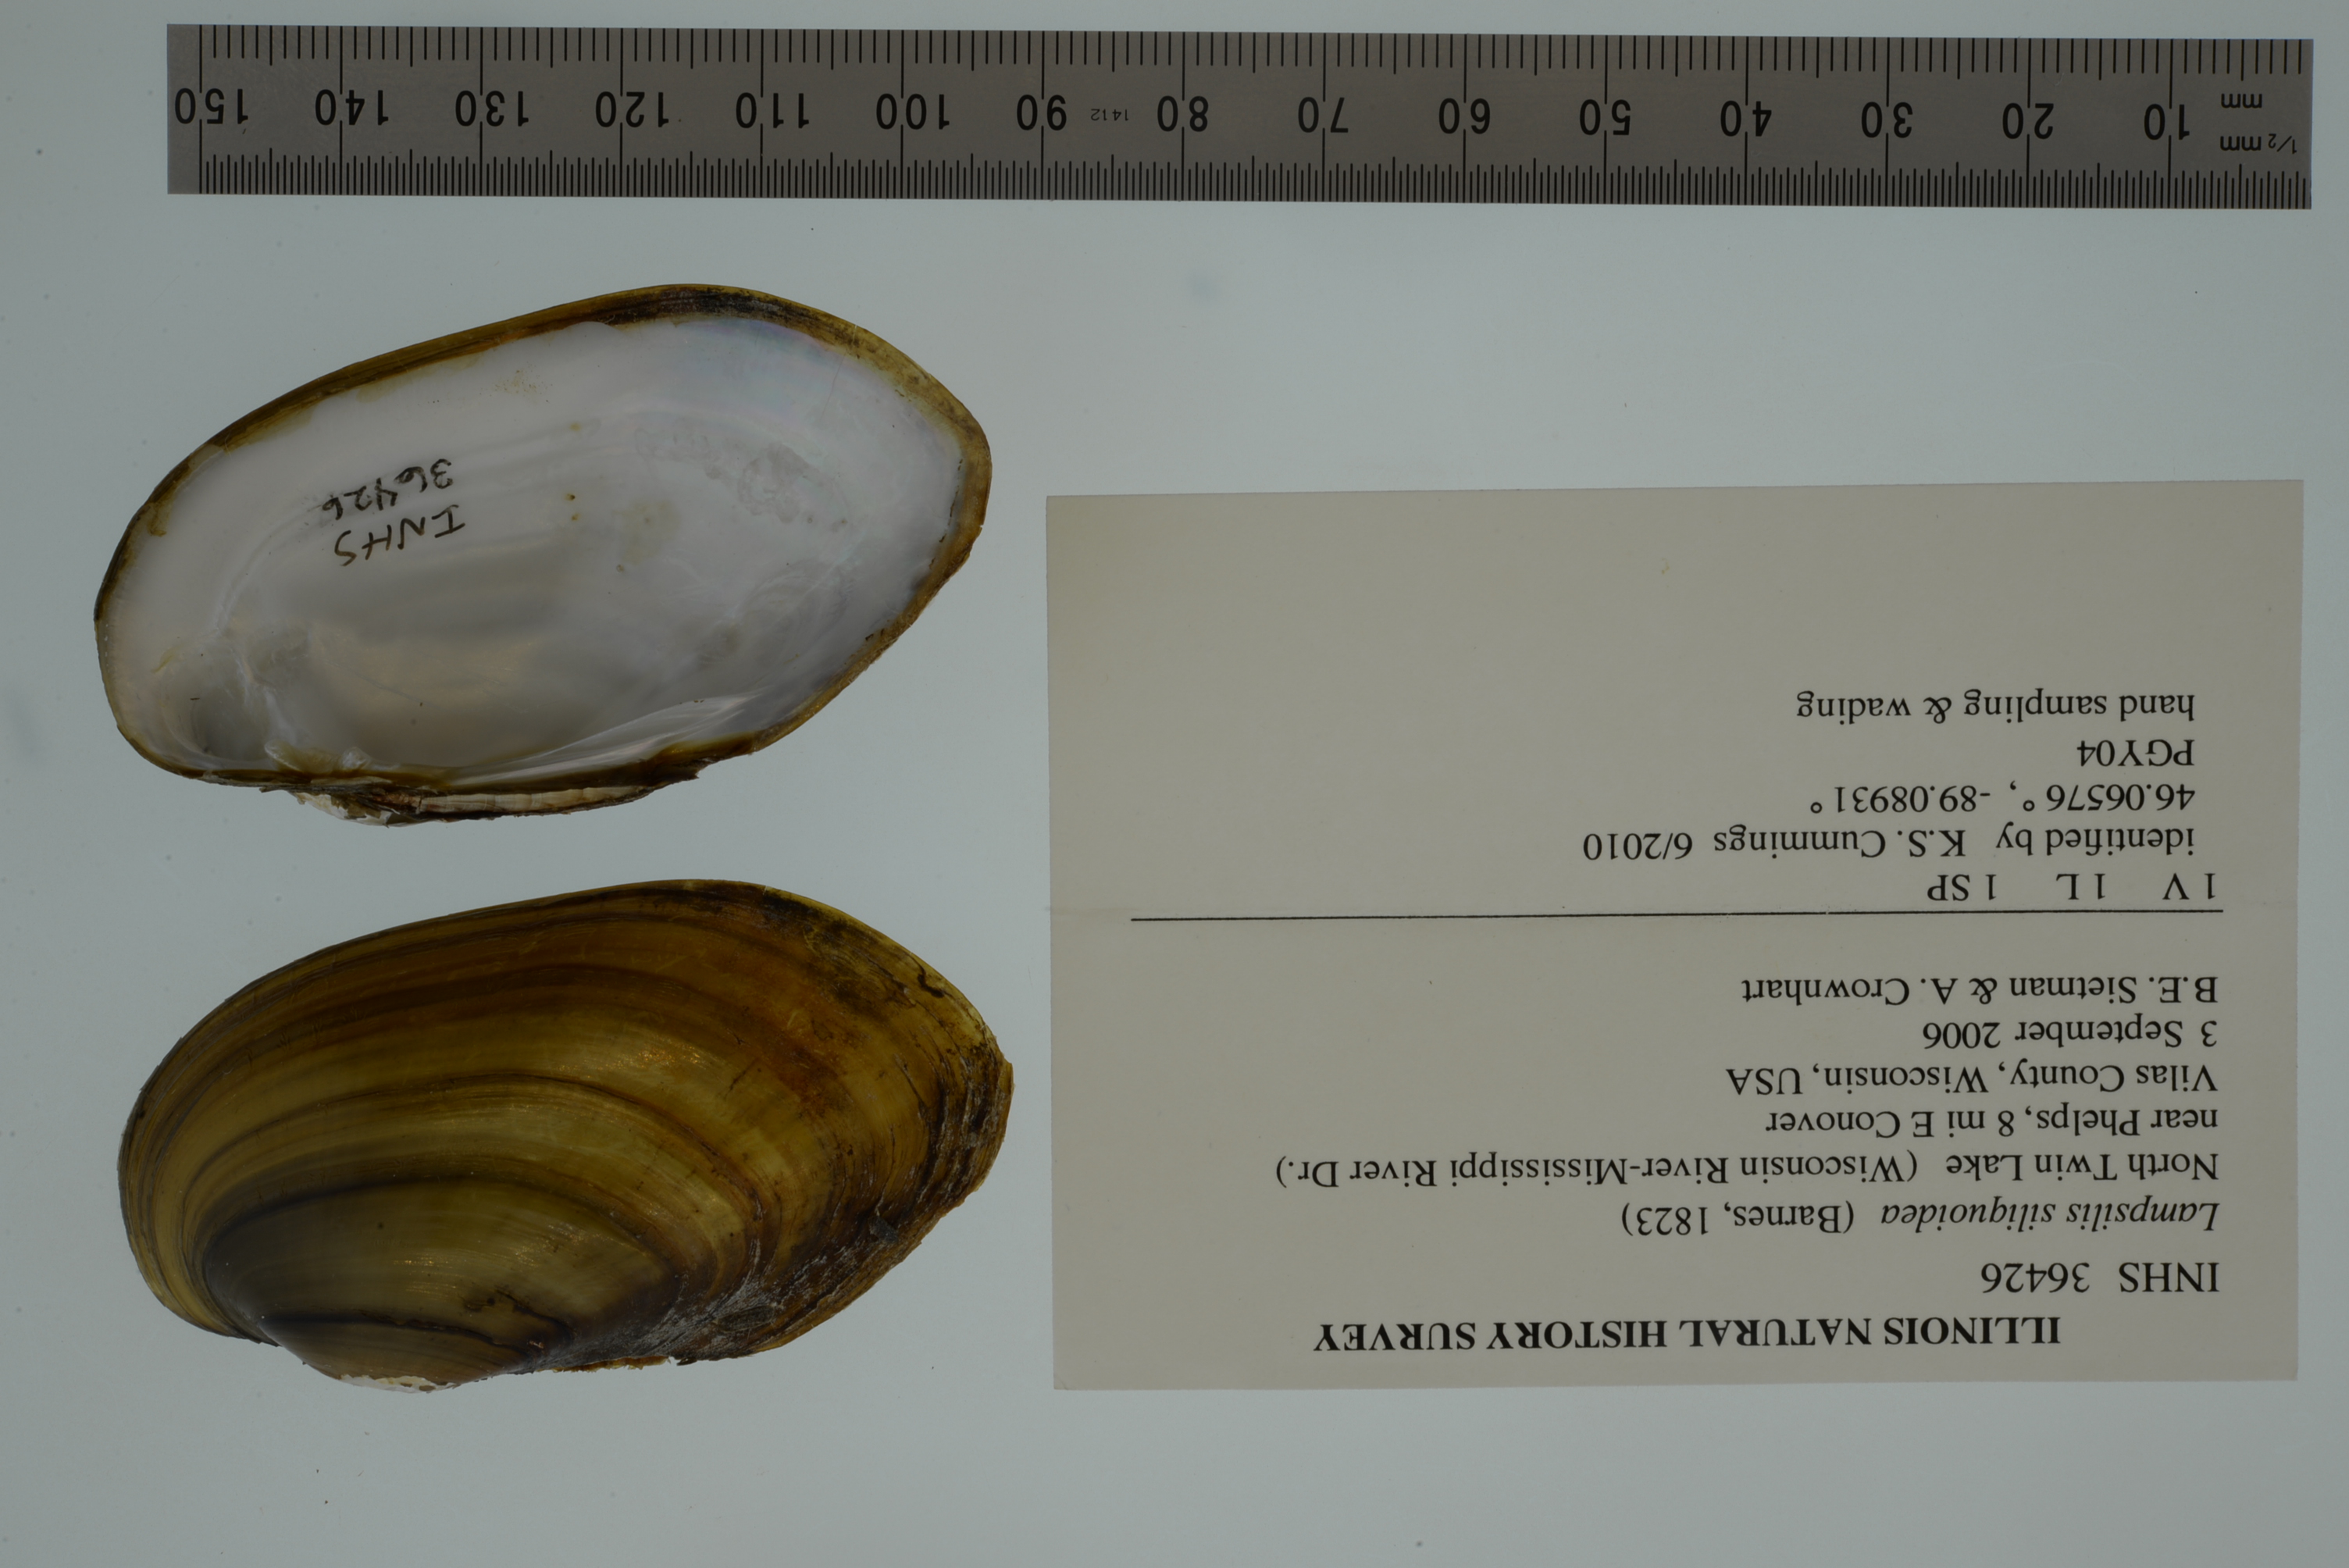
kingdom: Animalia
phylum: Mollusca
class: Bivalvia
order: Unionida
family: Unionidae
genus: Lampsilis
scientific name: Lampsilis siliquoidea
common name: Fatmucket
